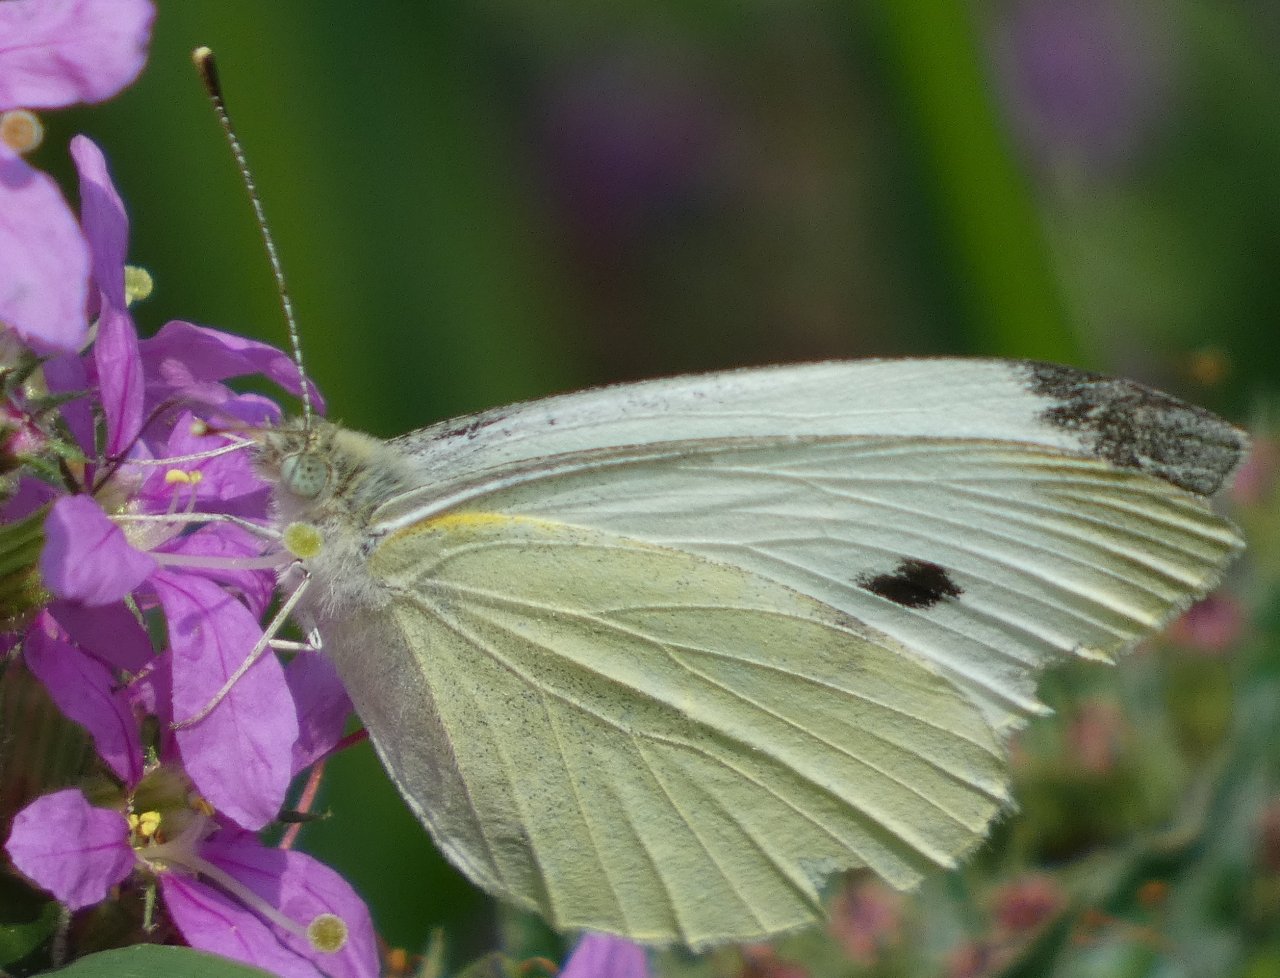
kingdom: Animalia
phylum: Arthropoda
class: Insecta
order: Lepidoptera
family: Pieridae
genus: Pieris
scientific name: Pieris rapae
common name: Cabbage White
